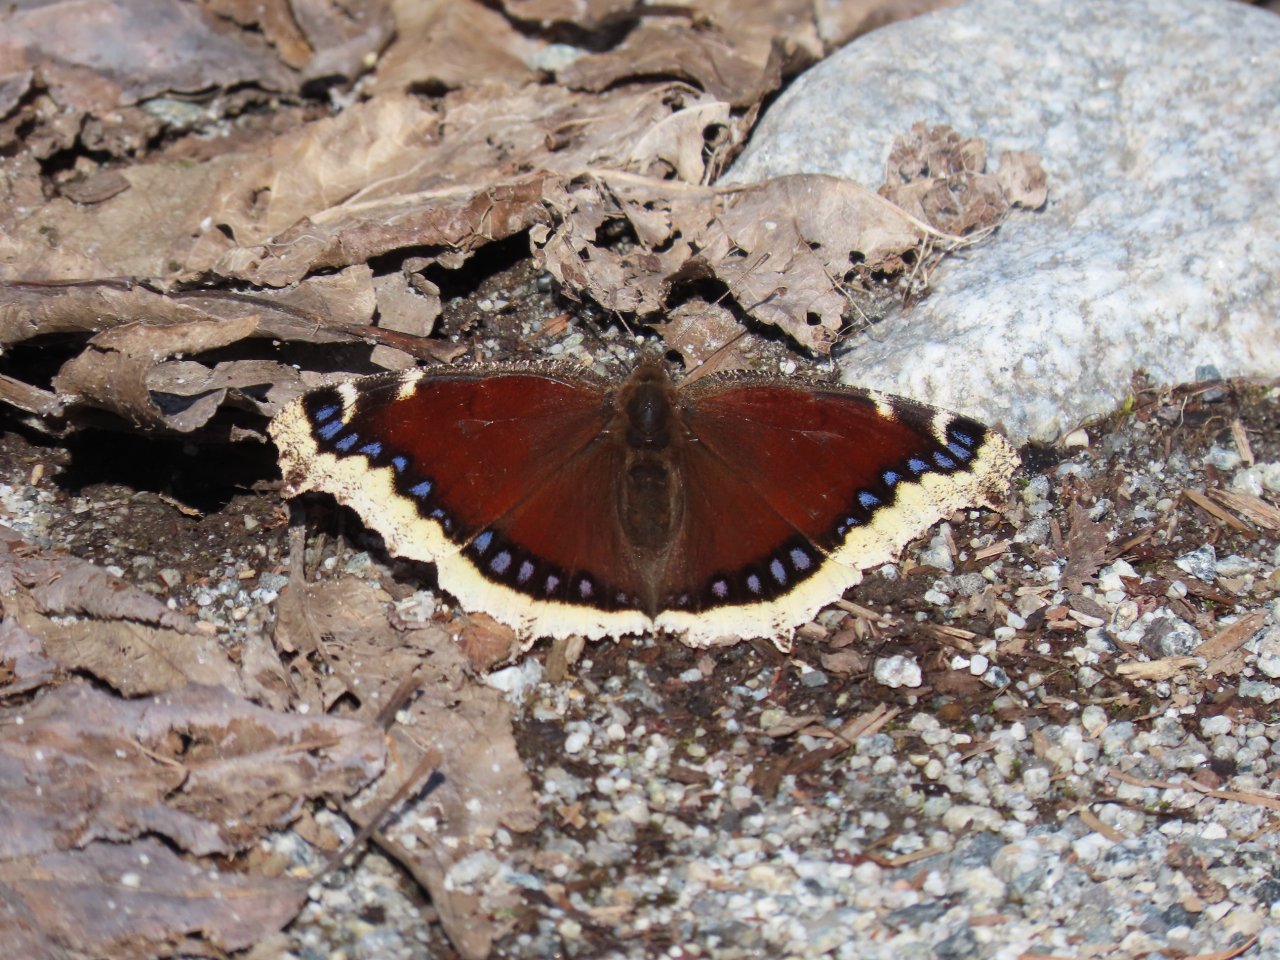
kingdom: Animalia
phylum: Arthropoda
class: Insecta
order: Lepidoptera
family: Nymphalidae
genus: Nymphalis
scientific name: Nymphalis antiopa
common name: Mourning Cloak
